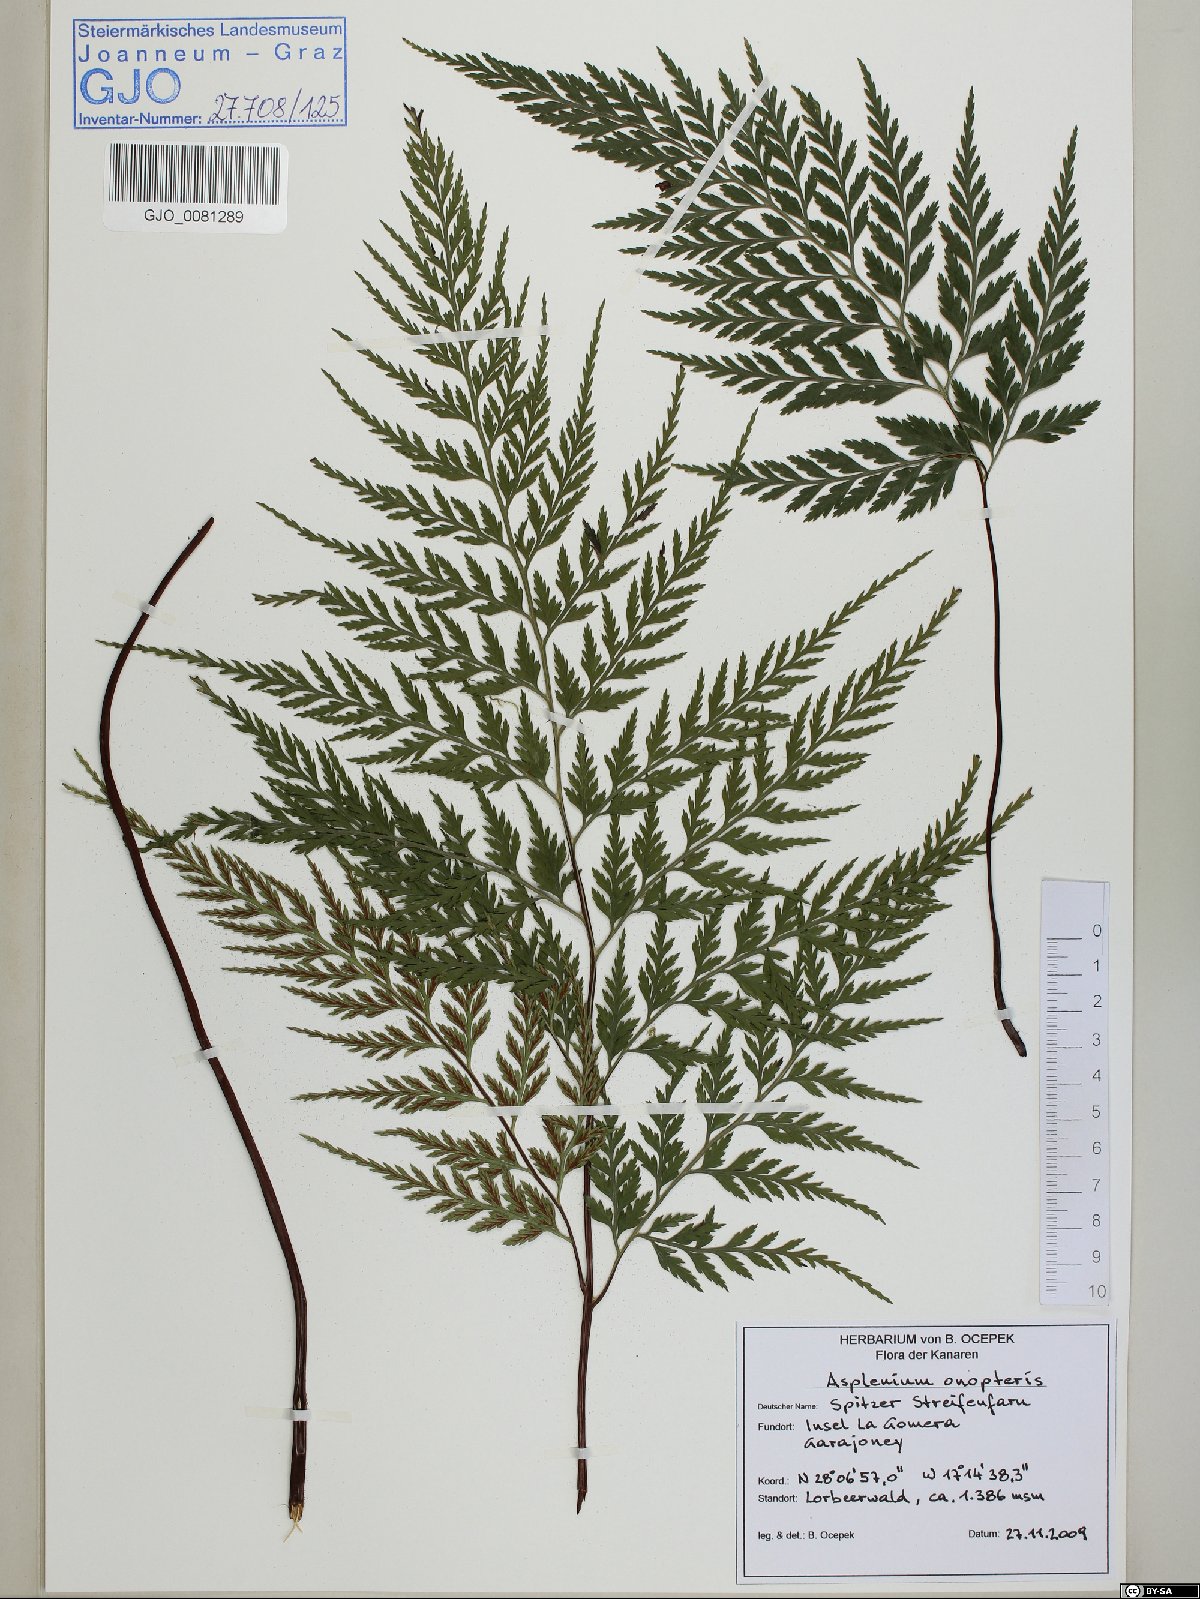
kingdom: Plantae
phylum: Tracheophyta
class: Polypodiopsida
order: Polypodiales
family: Aspleniaceae
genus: Asplenium
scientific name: Asplenium onopteris
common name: Irish spleenwort
